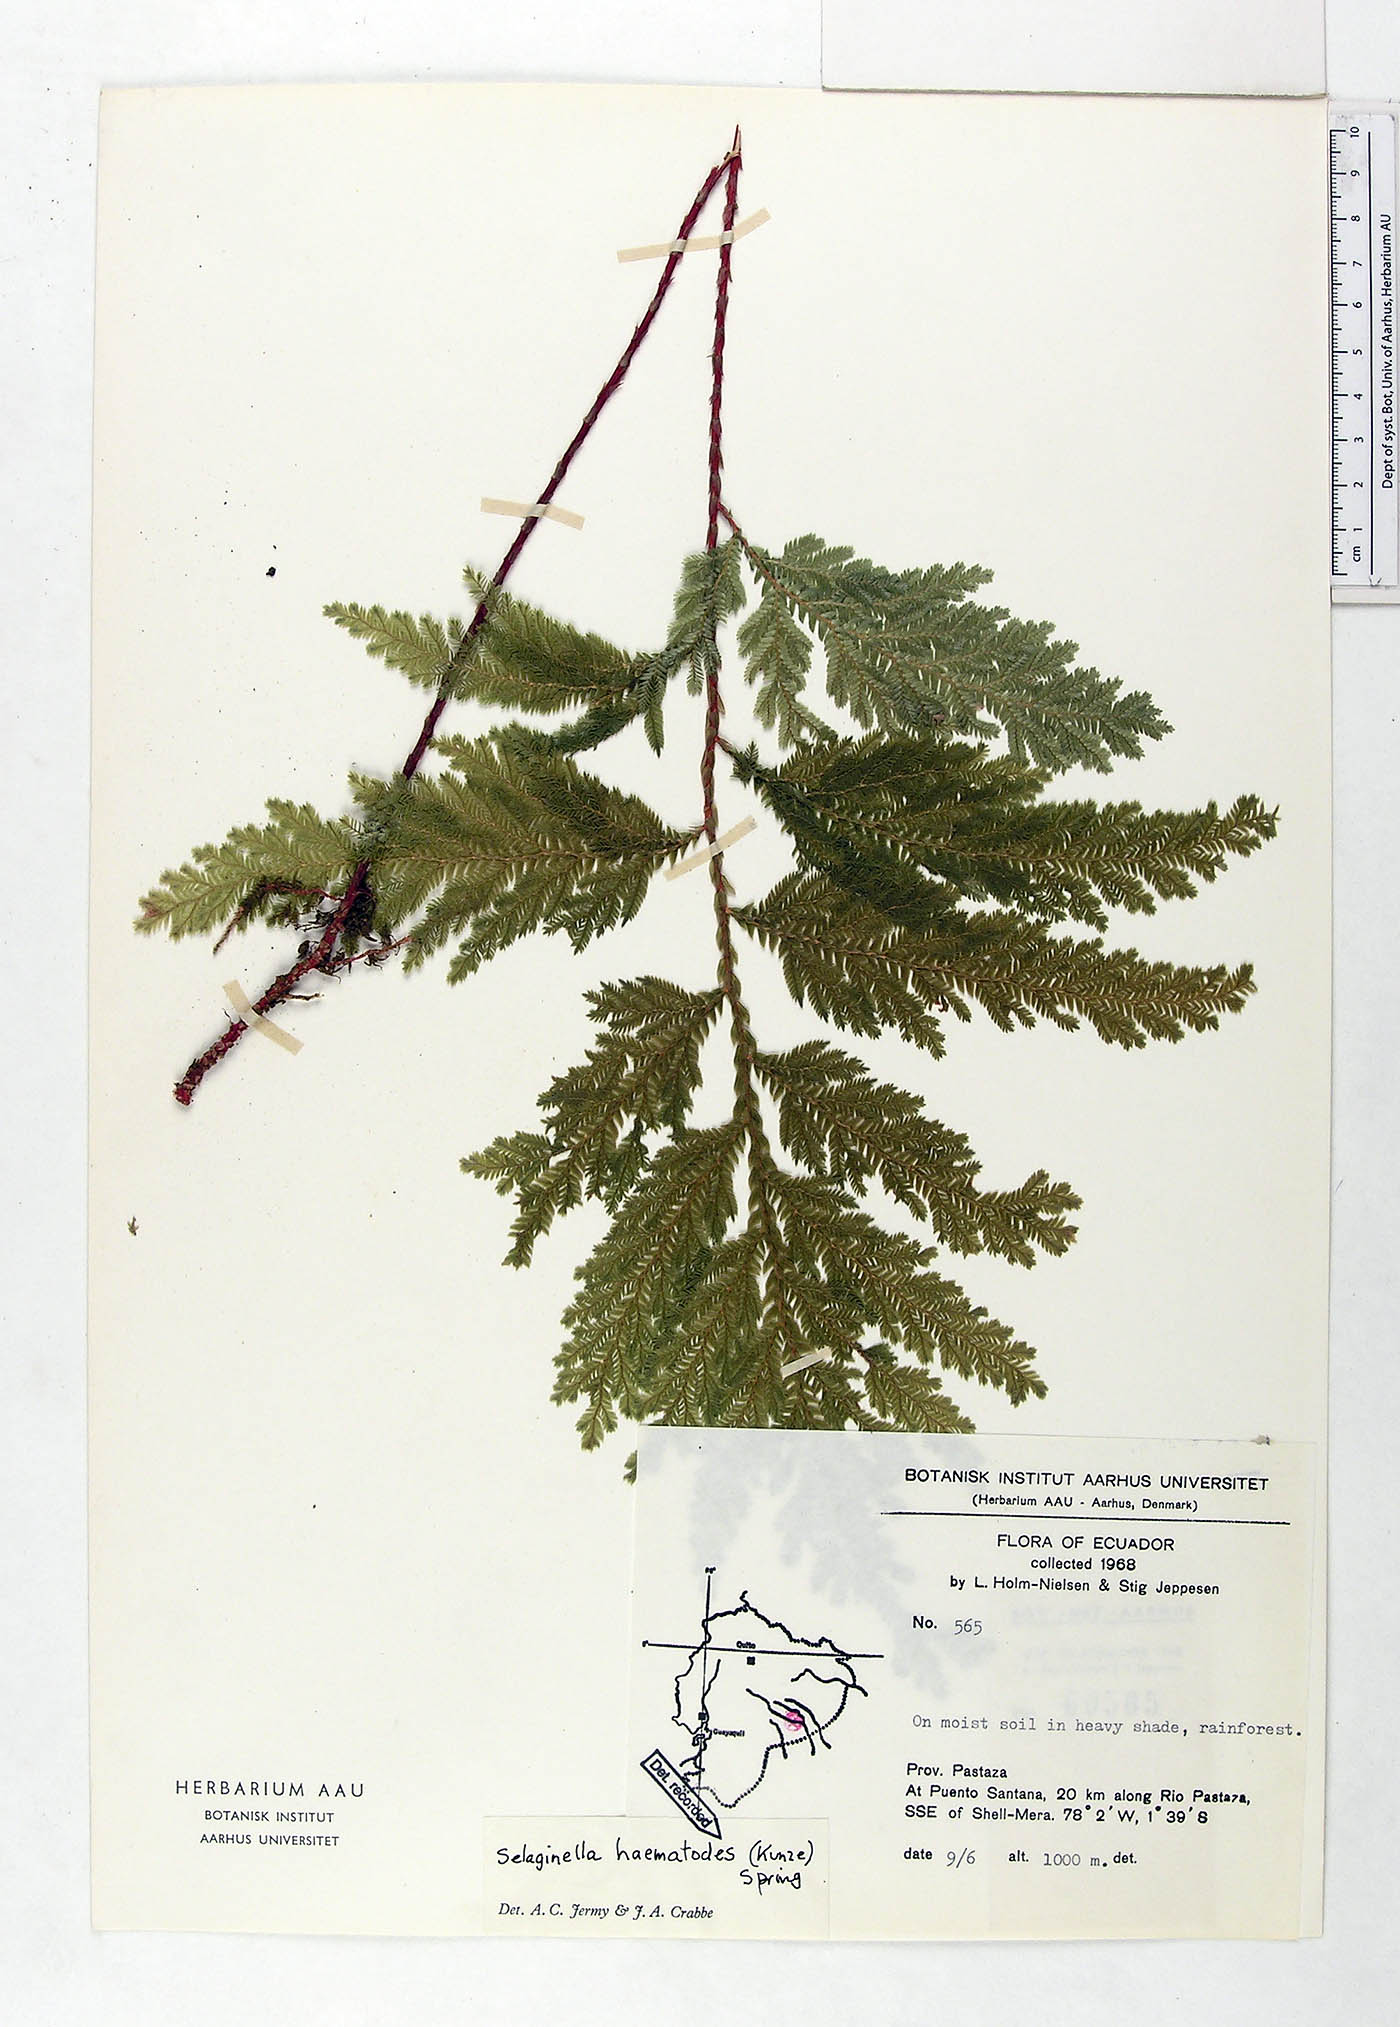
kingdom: Plantae
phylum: Tracheophyta
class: Lycopodiopsida
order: Selaginellales
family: Selaginellaceae
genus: Selaginella
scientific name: Selaginella haematodes
